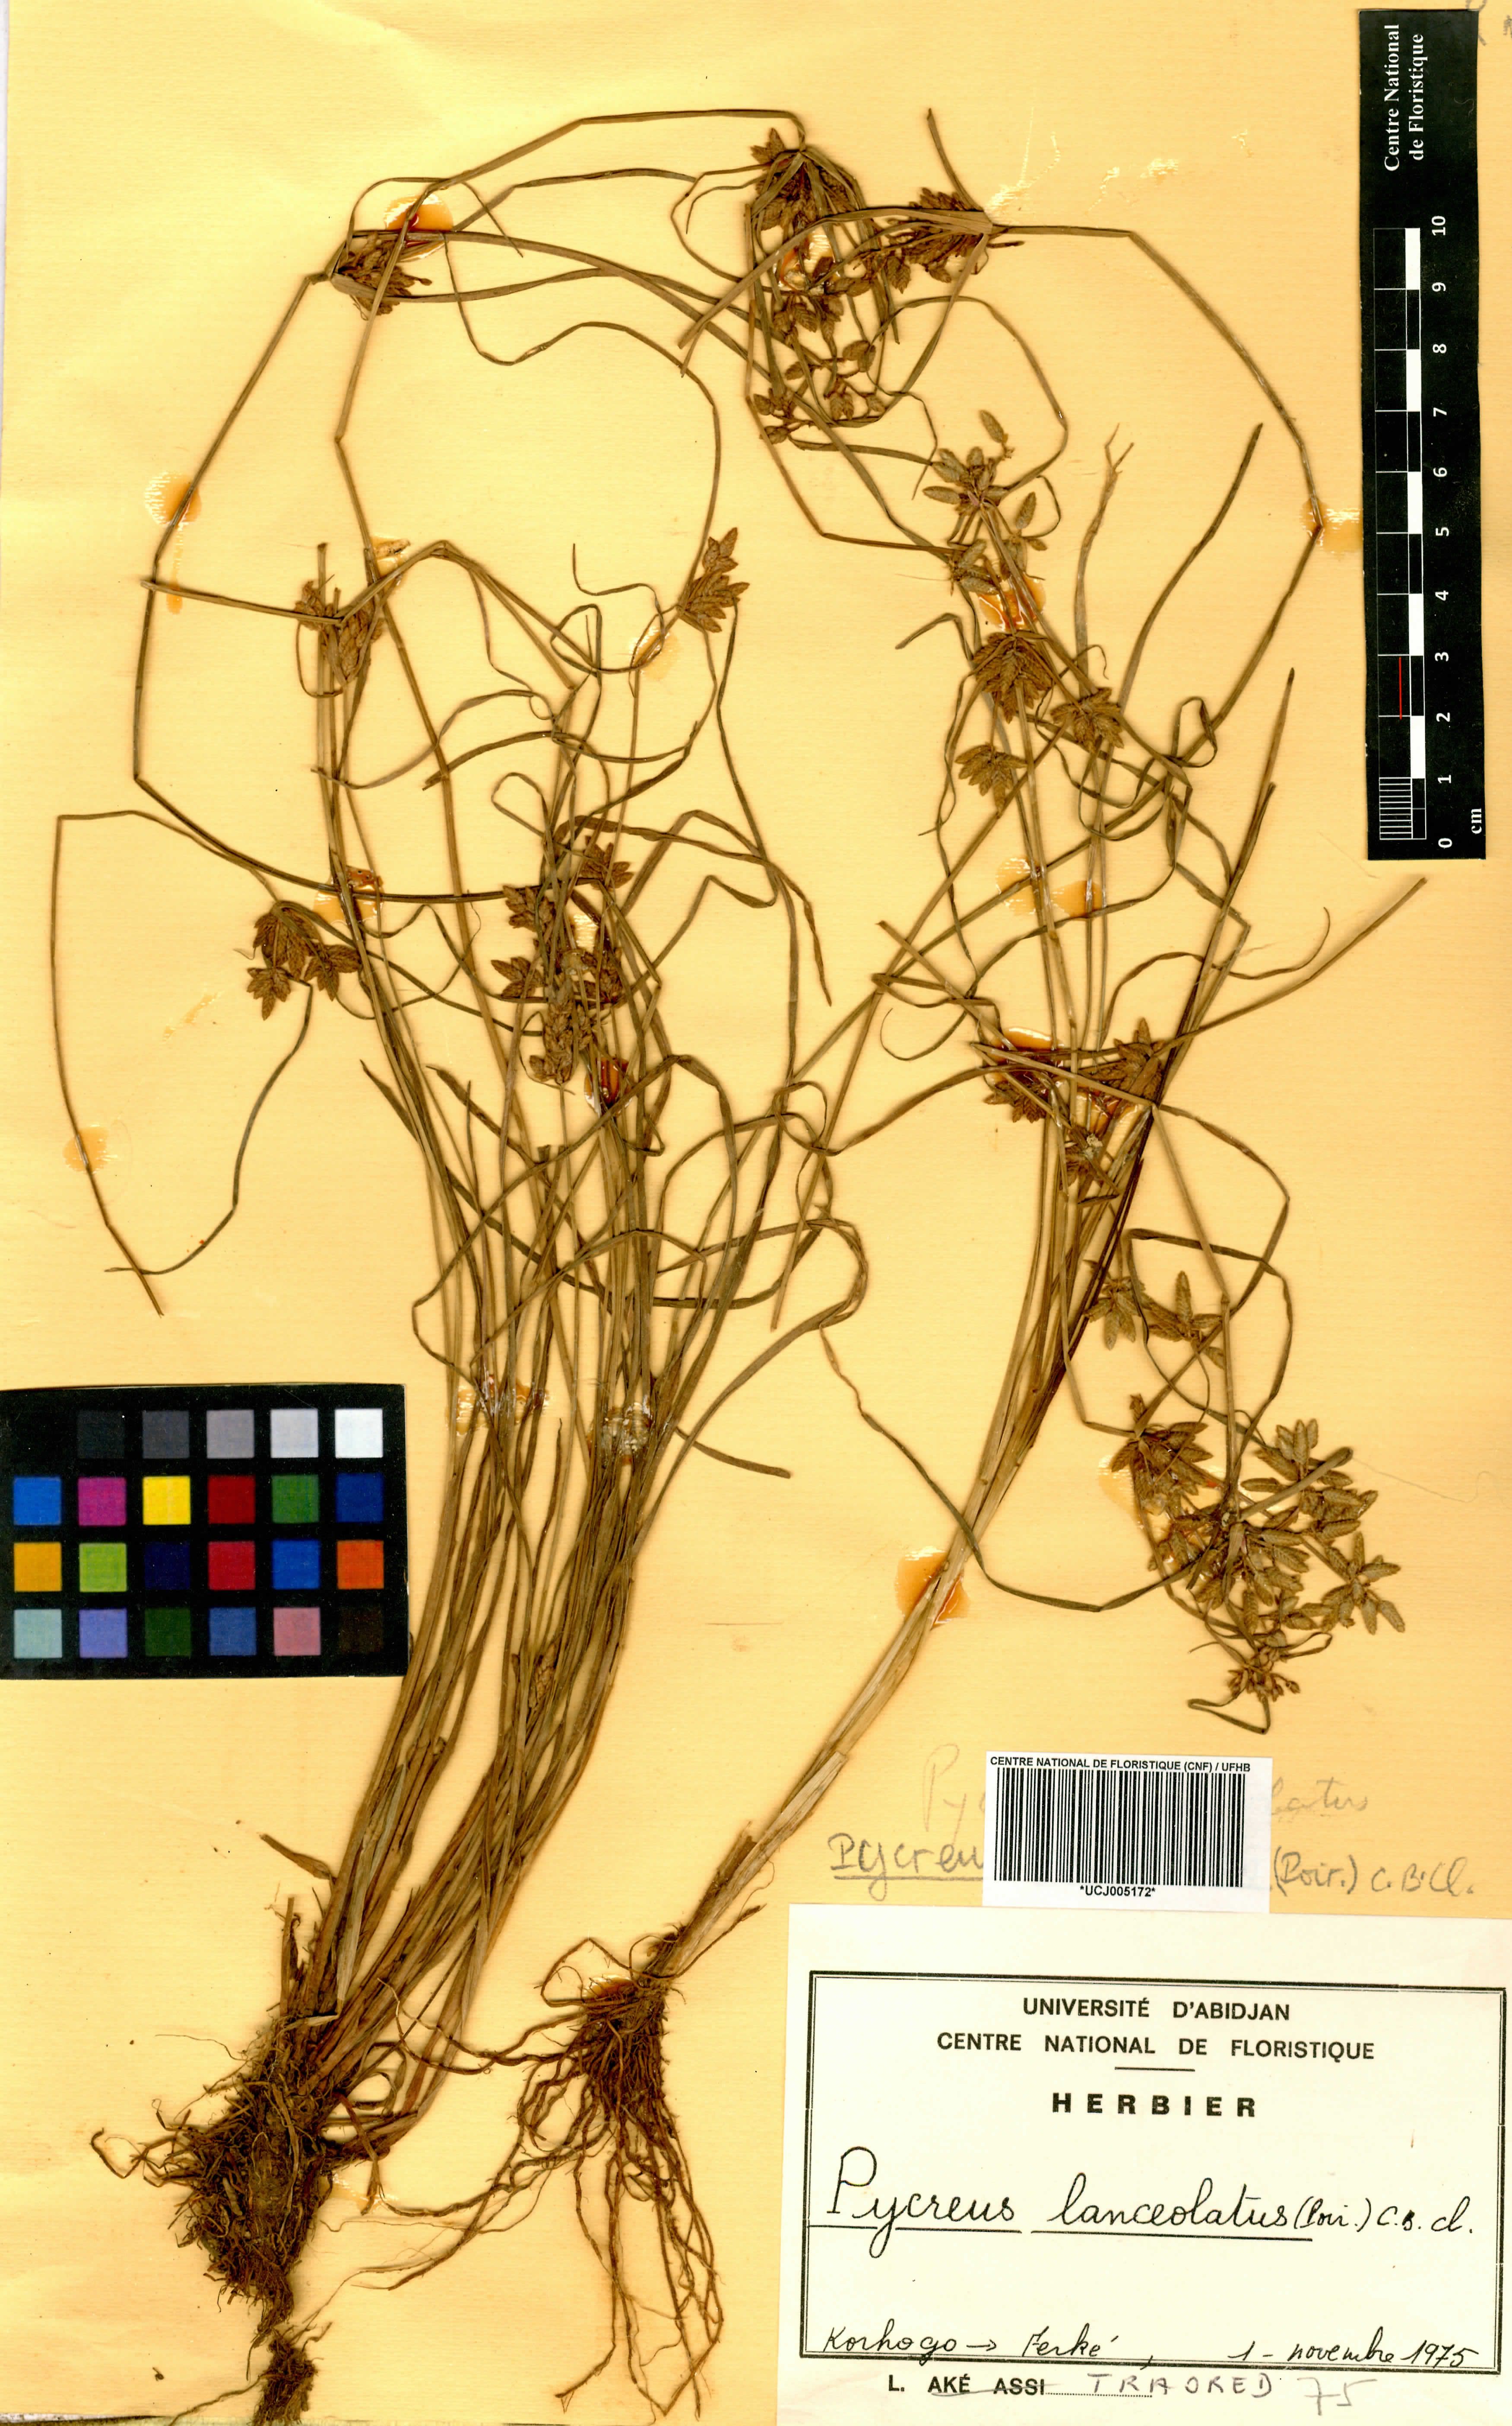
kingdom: Plantae
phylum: Tracheophyta
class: Liliopsida
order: Poales
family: Cyperaceae
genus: Cyperus
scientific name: Cyperus lanceolatus
